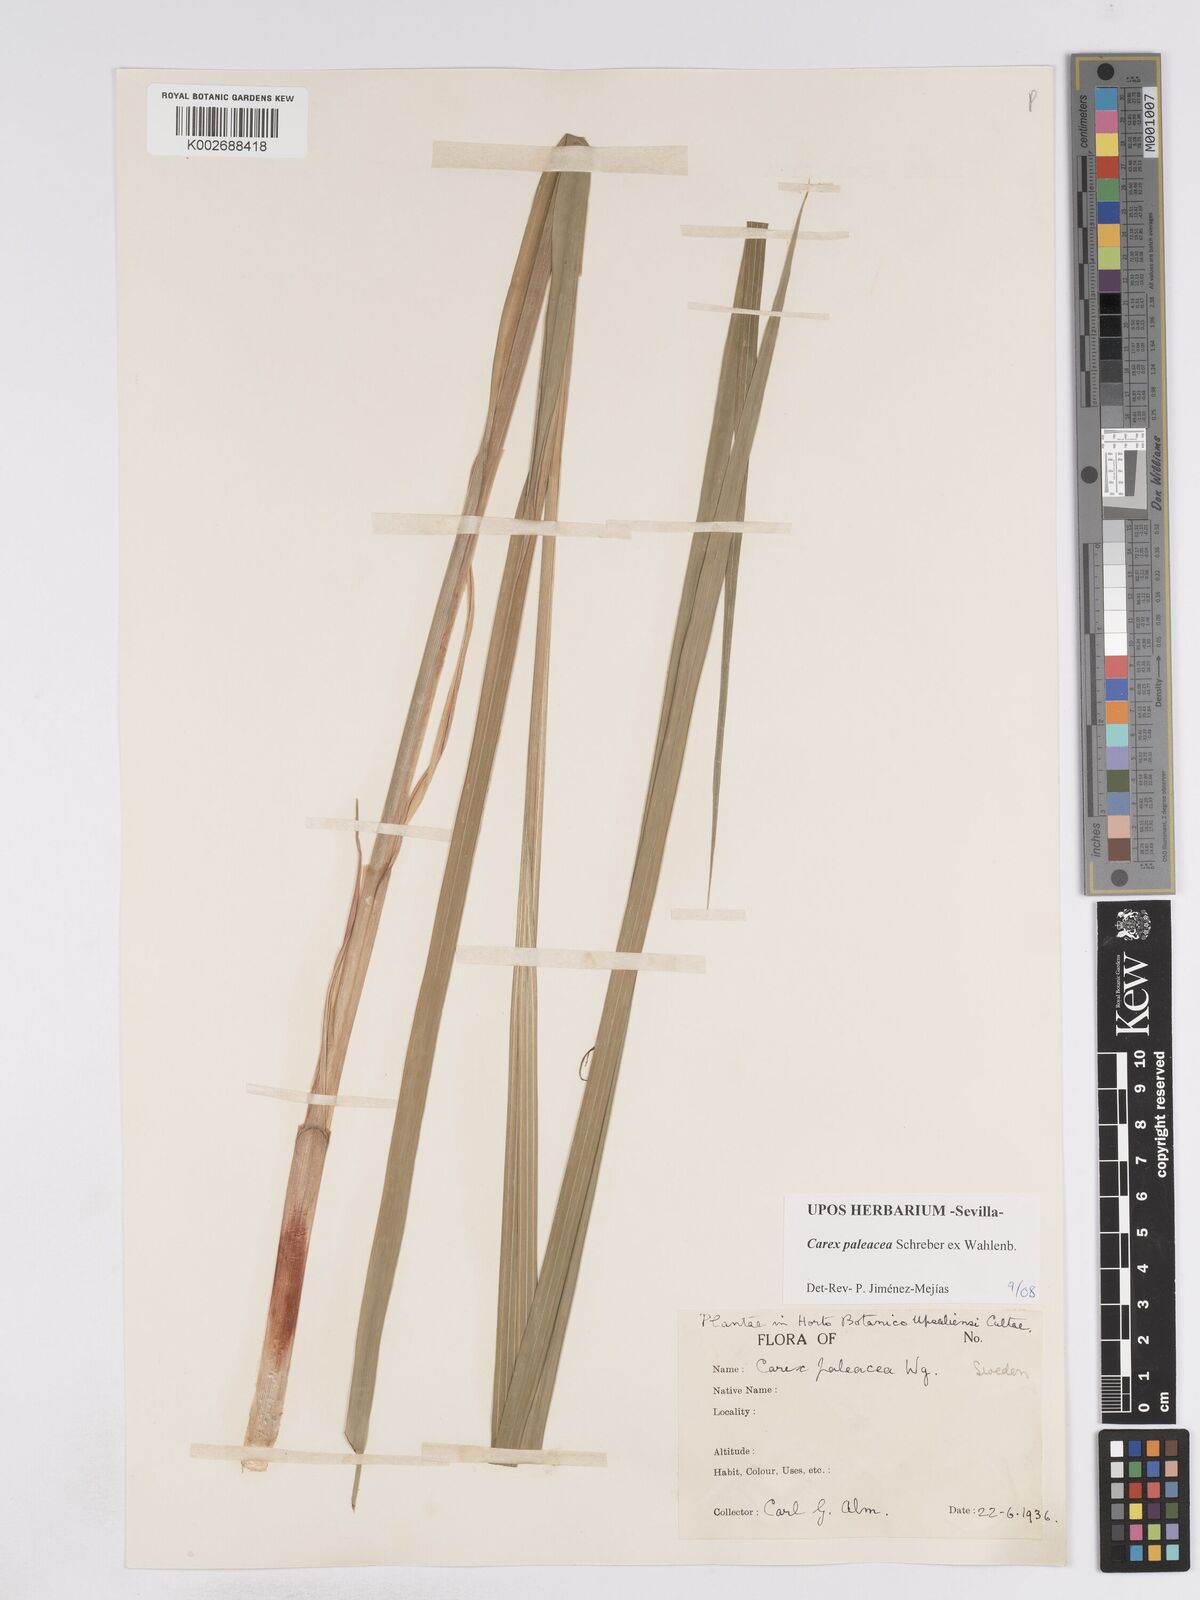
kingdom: Plantae
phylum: Tracheophyta
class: Liliopsida
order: Poales
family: Cyperaceae
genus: Carex
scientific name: Carex paleacea
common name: Chaffy sedge
